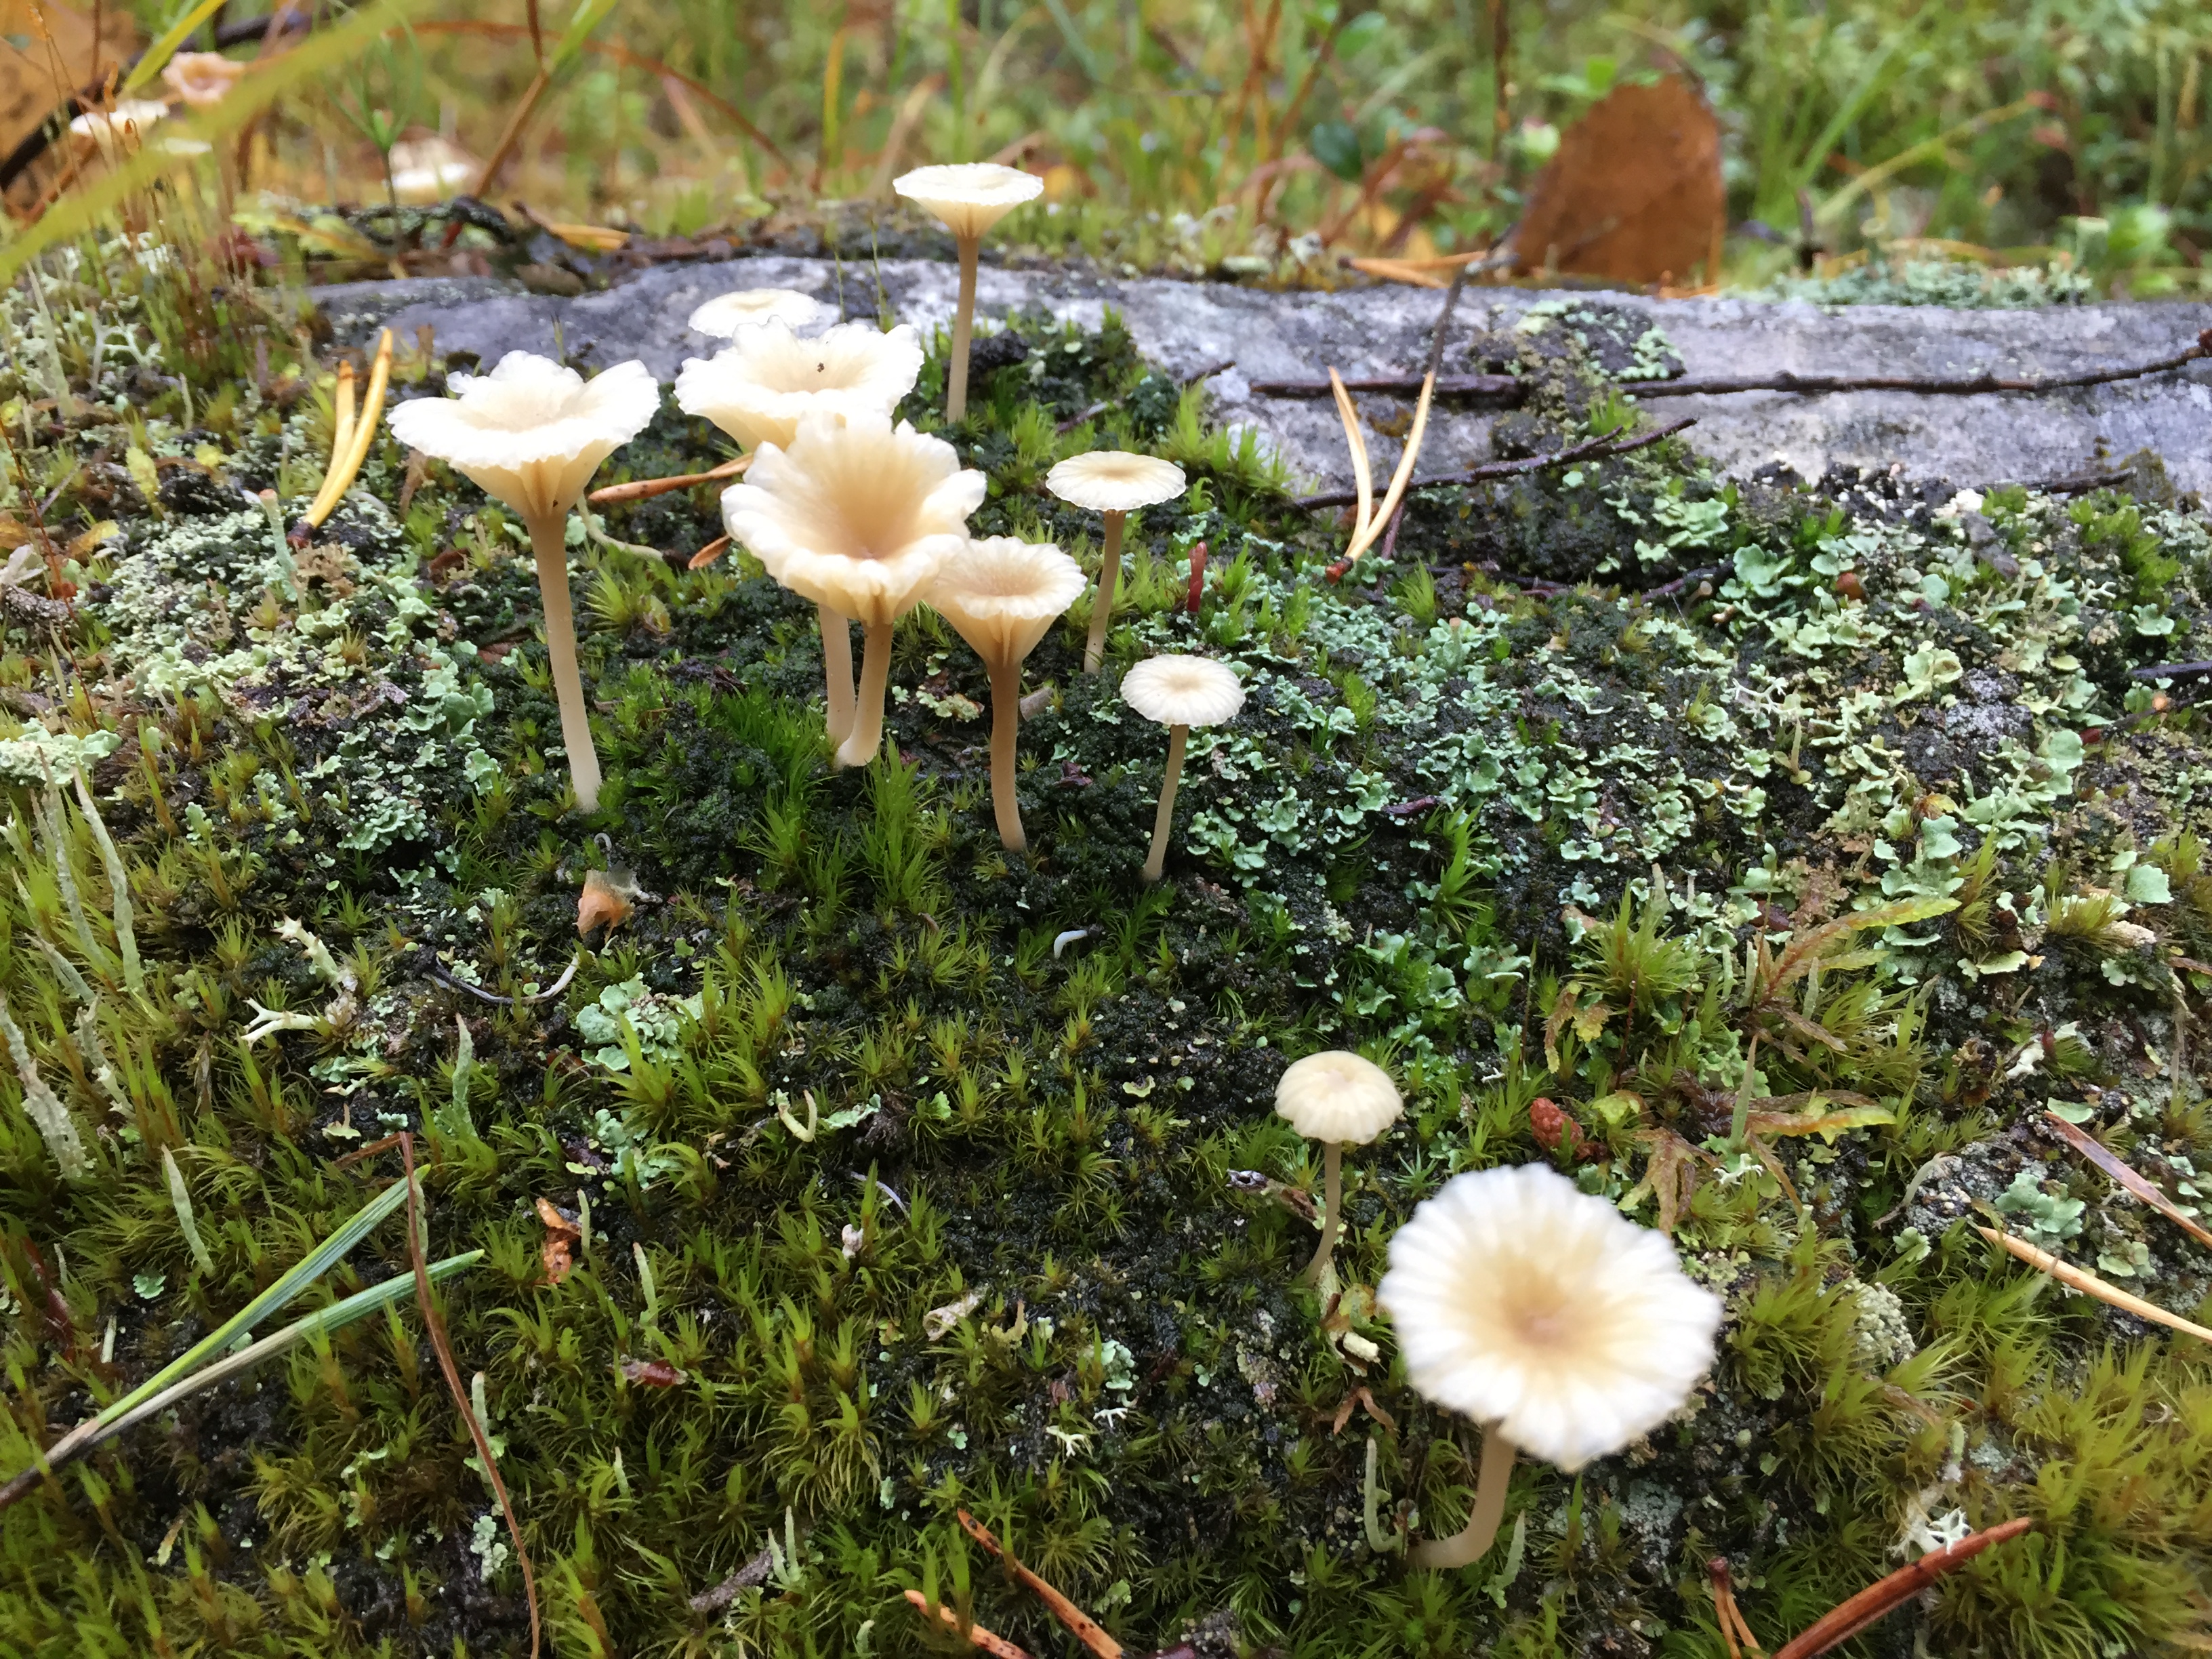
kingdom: Fungi
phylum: Basidiomycota
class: Agaricomycetes
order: Agaricales
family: Hygrophoraceae
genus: Lichenomphalia
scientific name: Lichenomphalia umbellifera
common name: Heath navel
